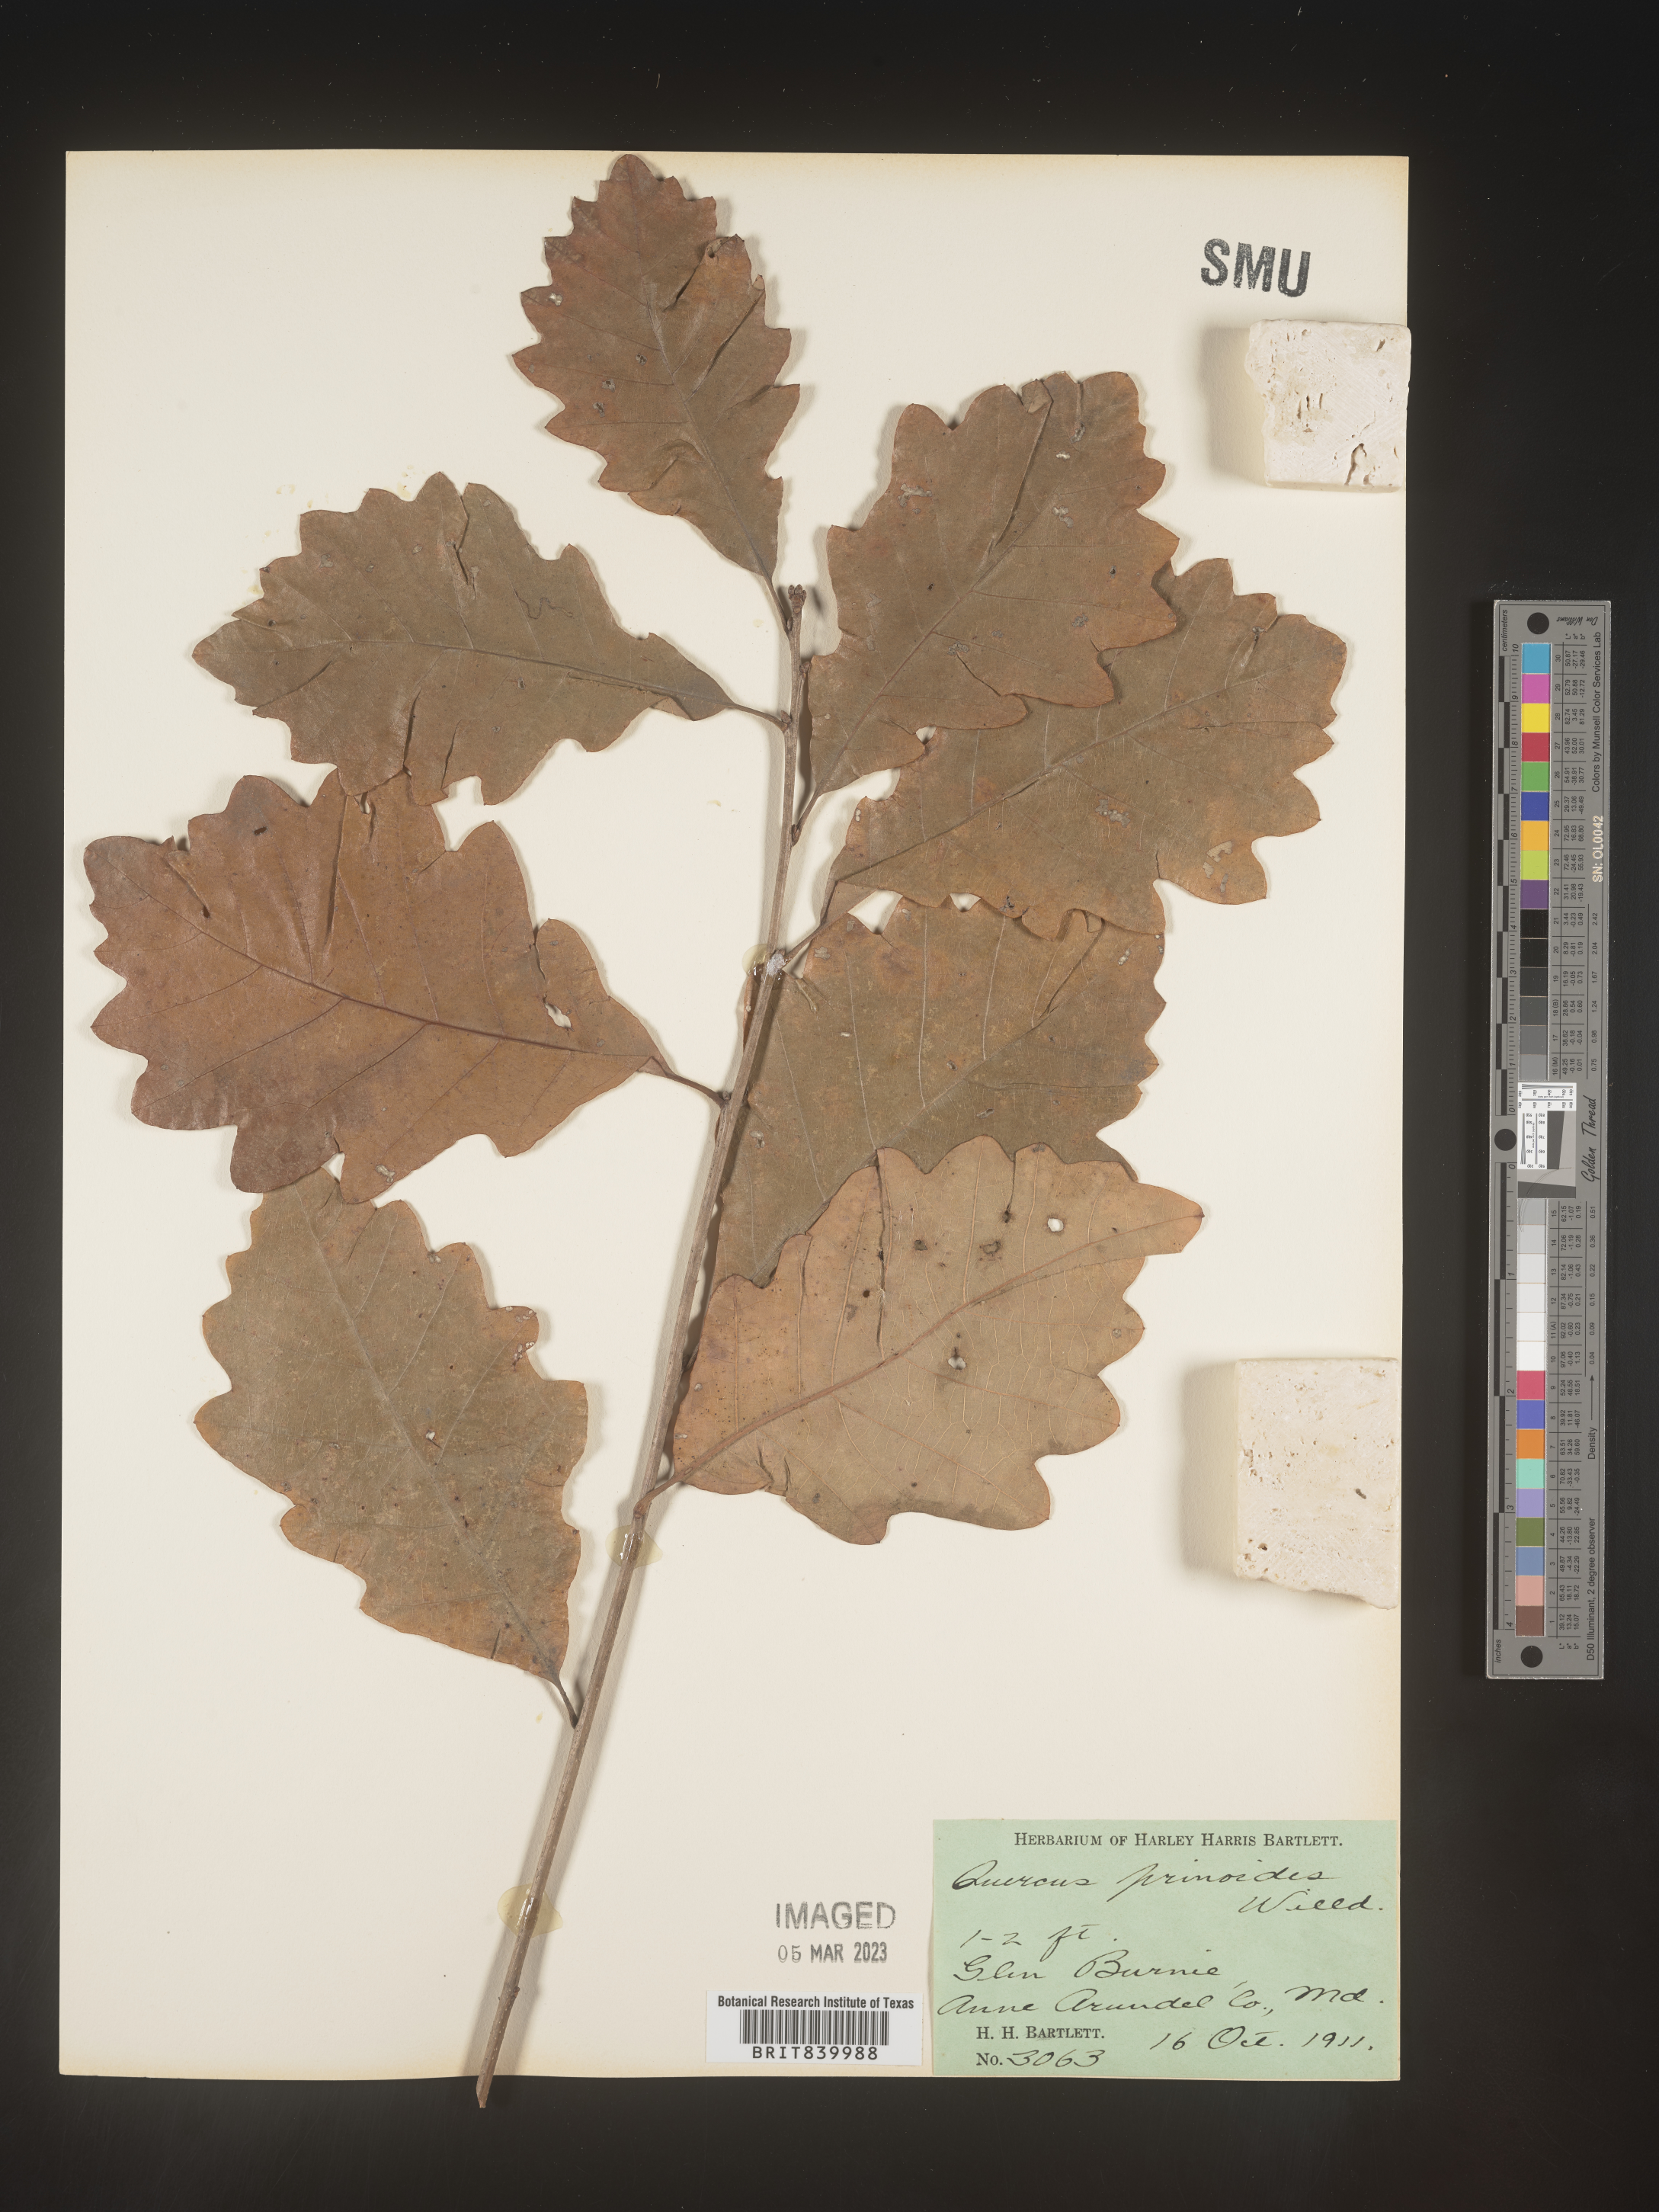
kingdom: Plantae
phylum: Tracheophyta
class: Magnoliopsida
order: Fagales
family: Fagaceae
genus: Quercus
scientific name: Quercus prinoides
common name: Dwarf chinkapin oak
